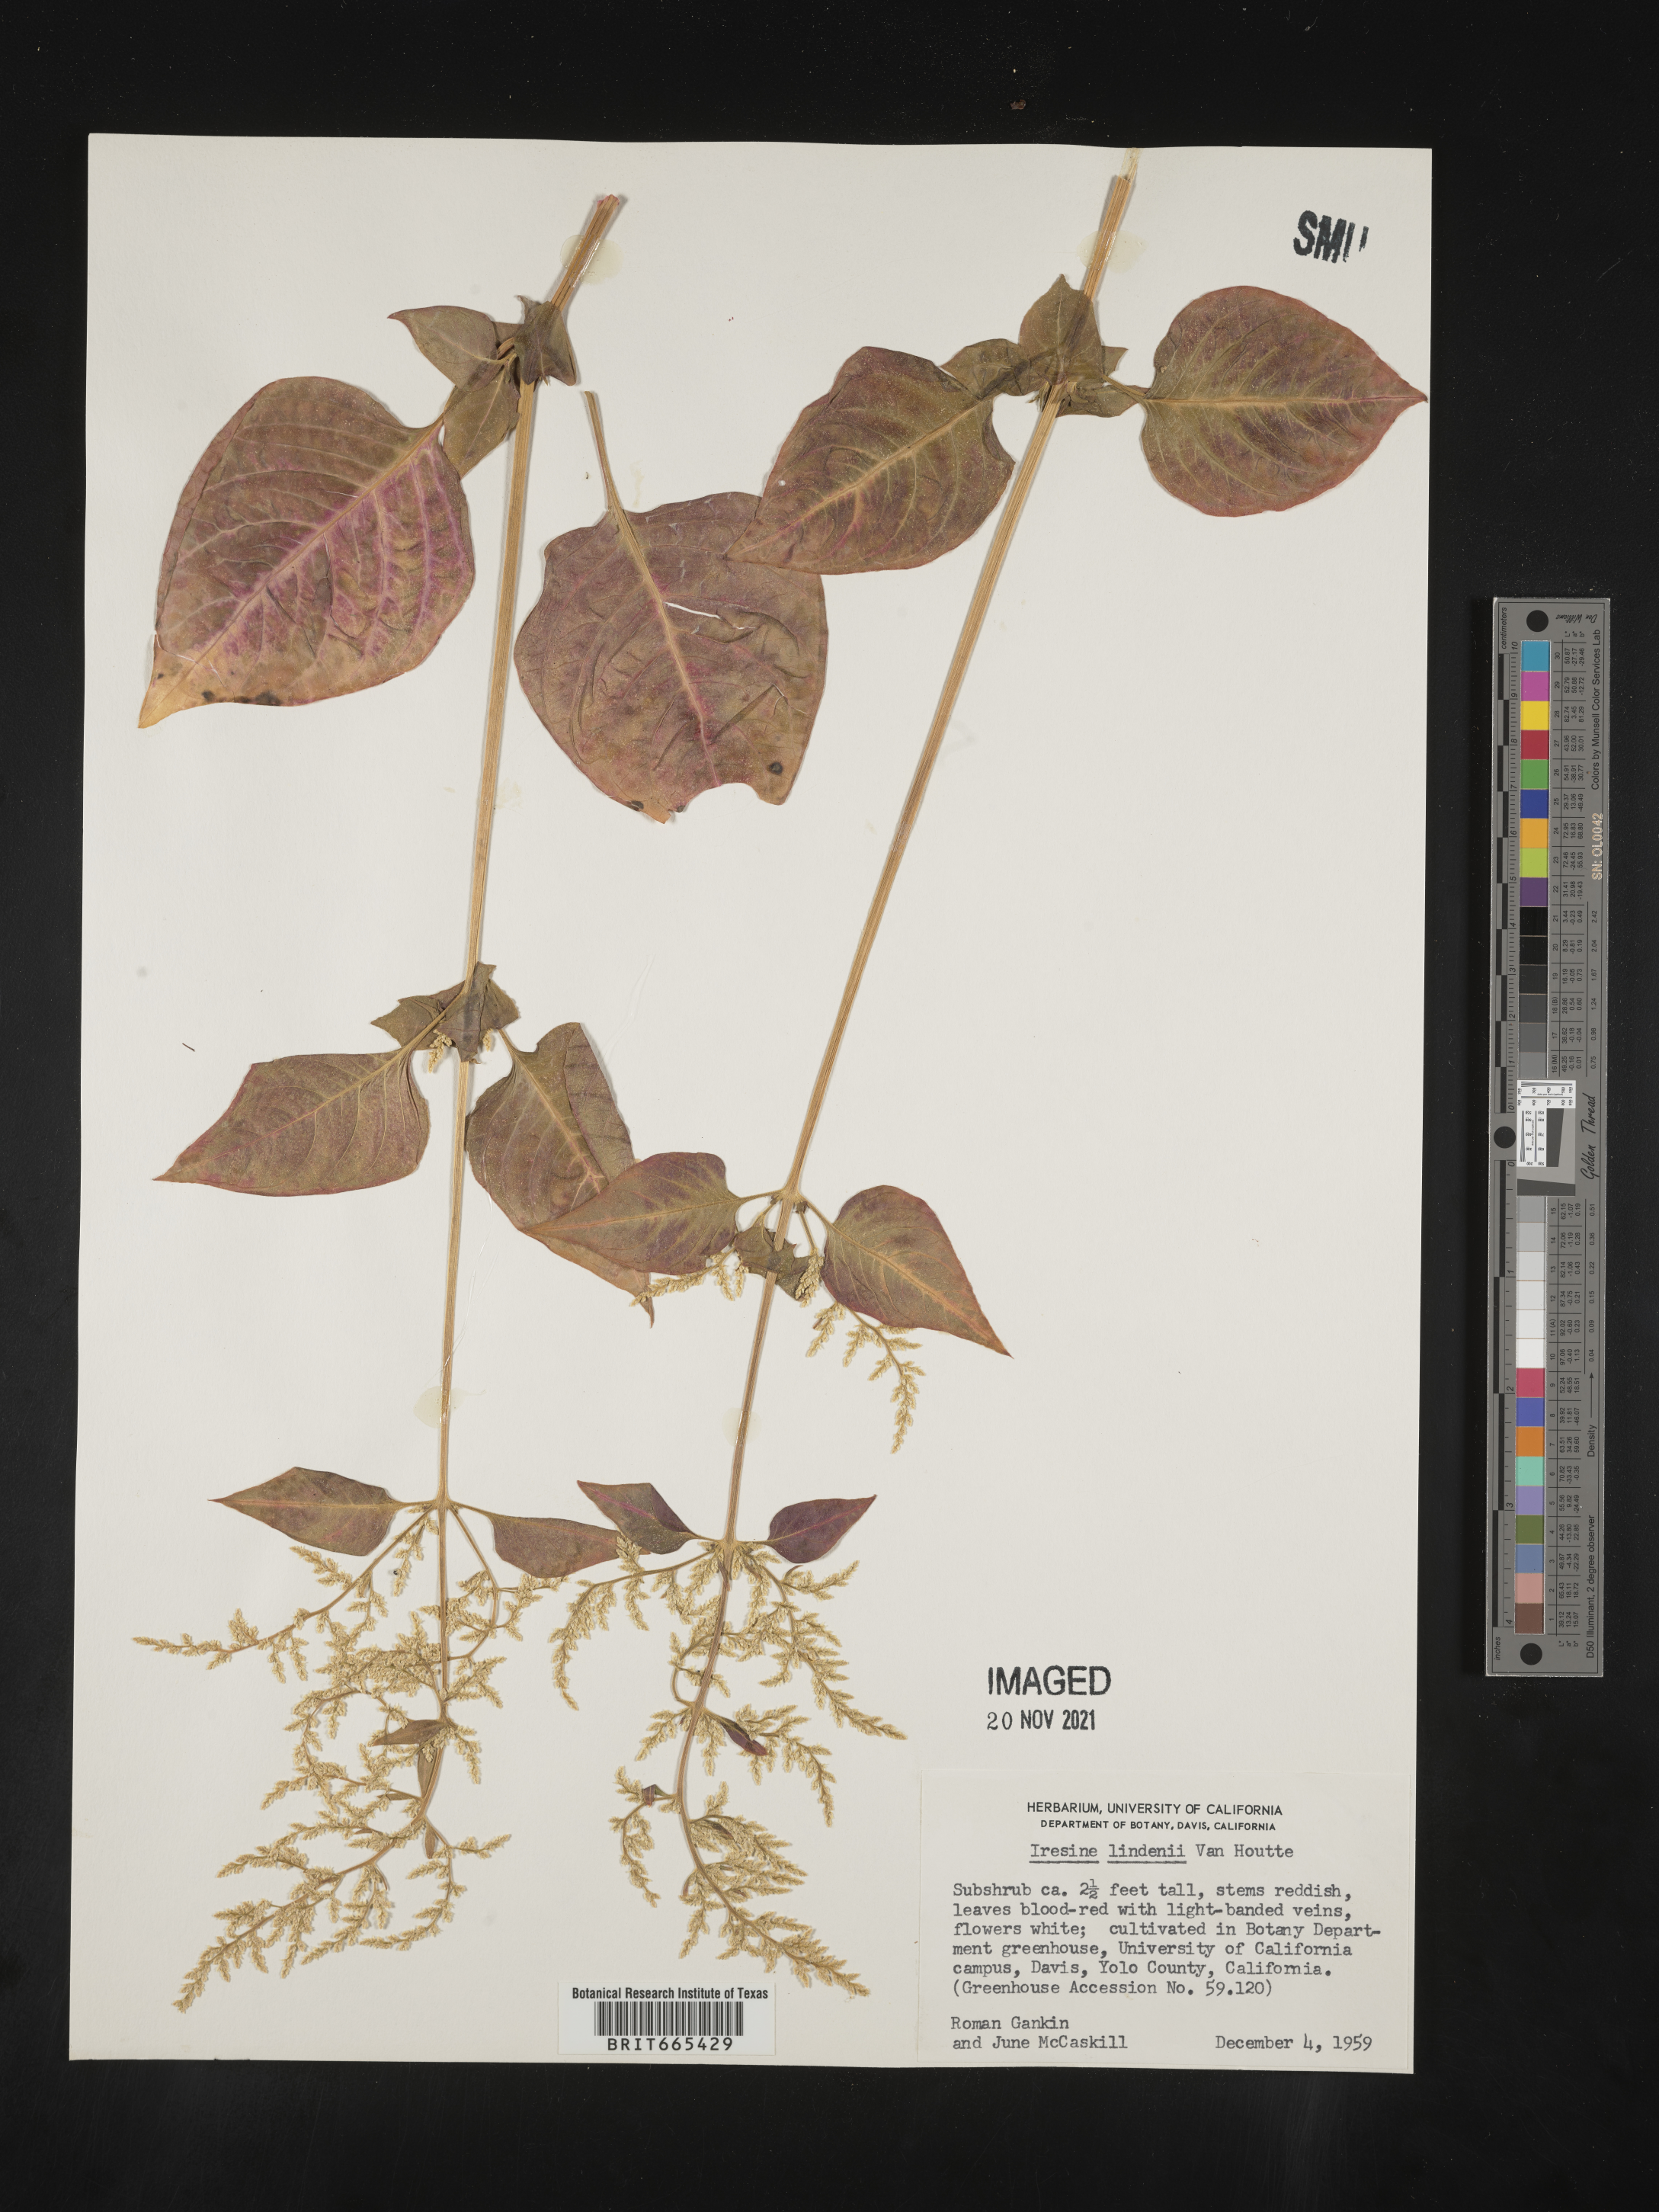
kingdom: Plantae
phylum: Tracheophyta
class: Magnoliopsida
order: Caryophyllales
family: Amaranthaceae
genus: Iresine
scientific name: Iresine
